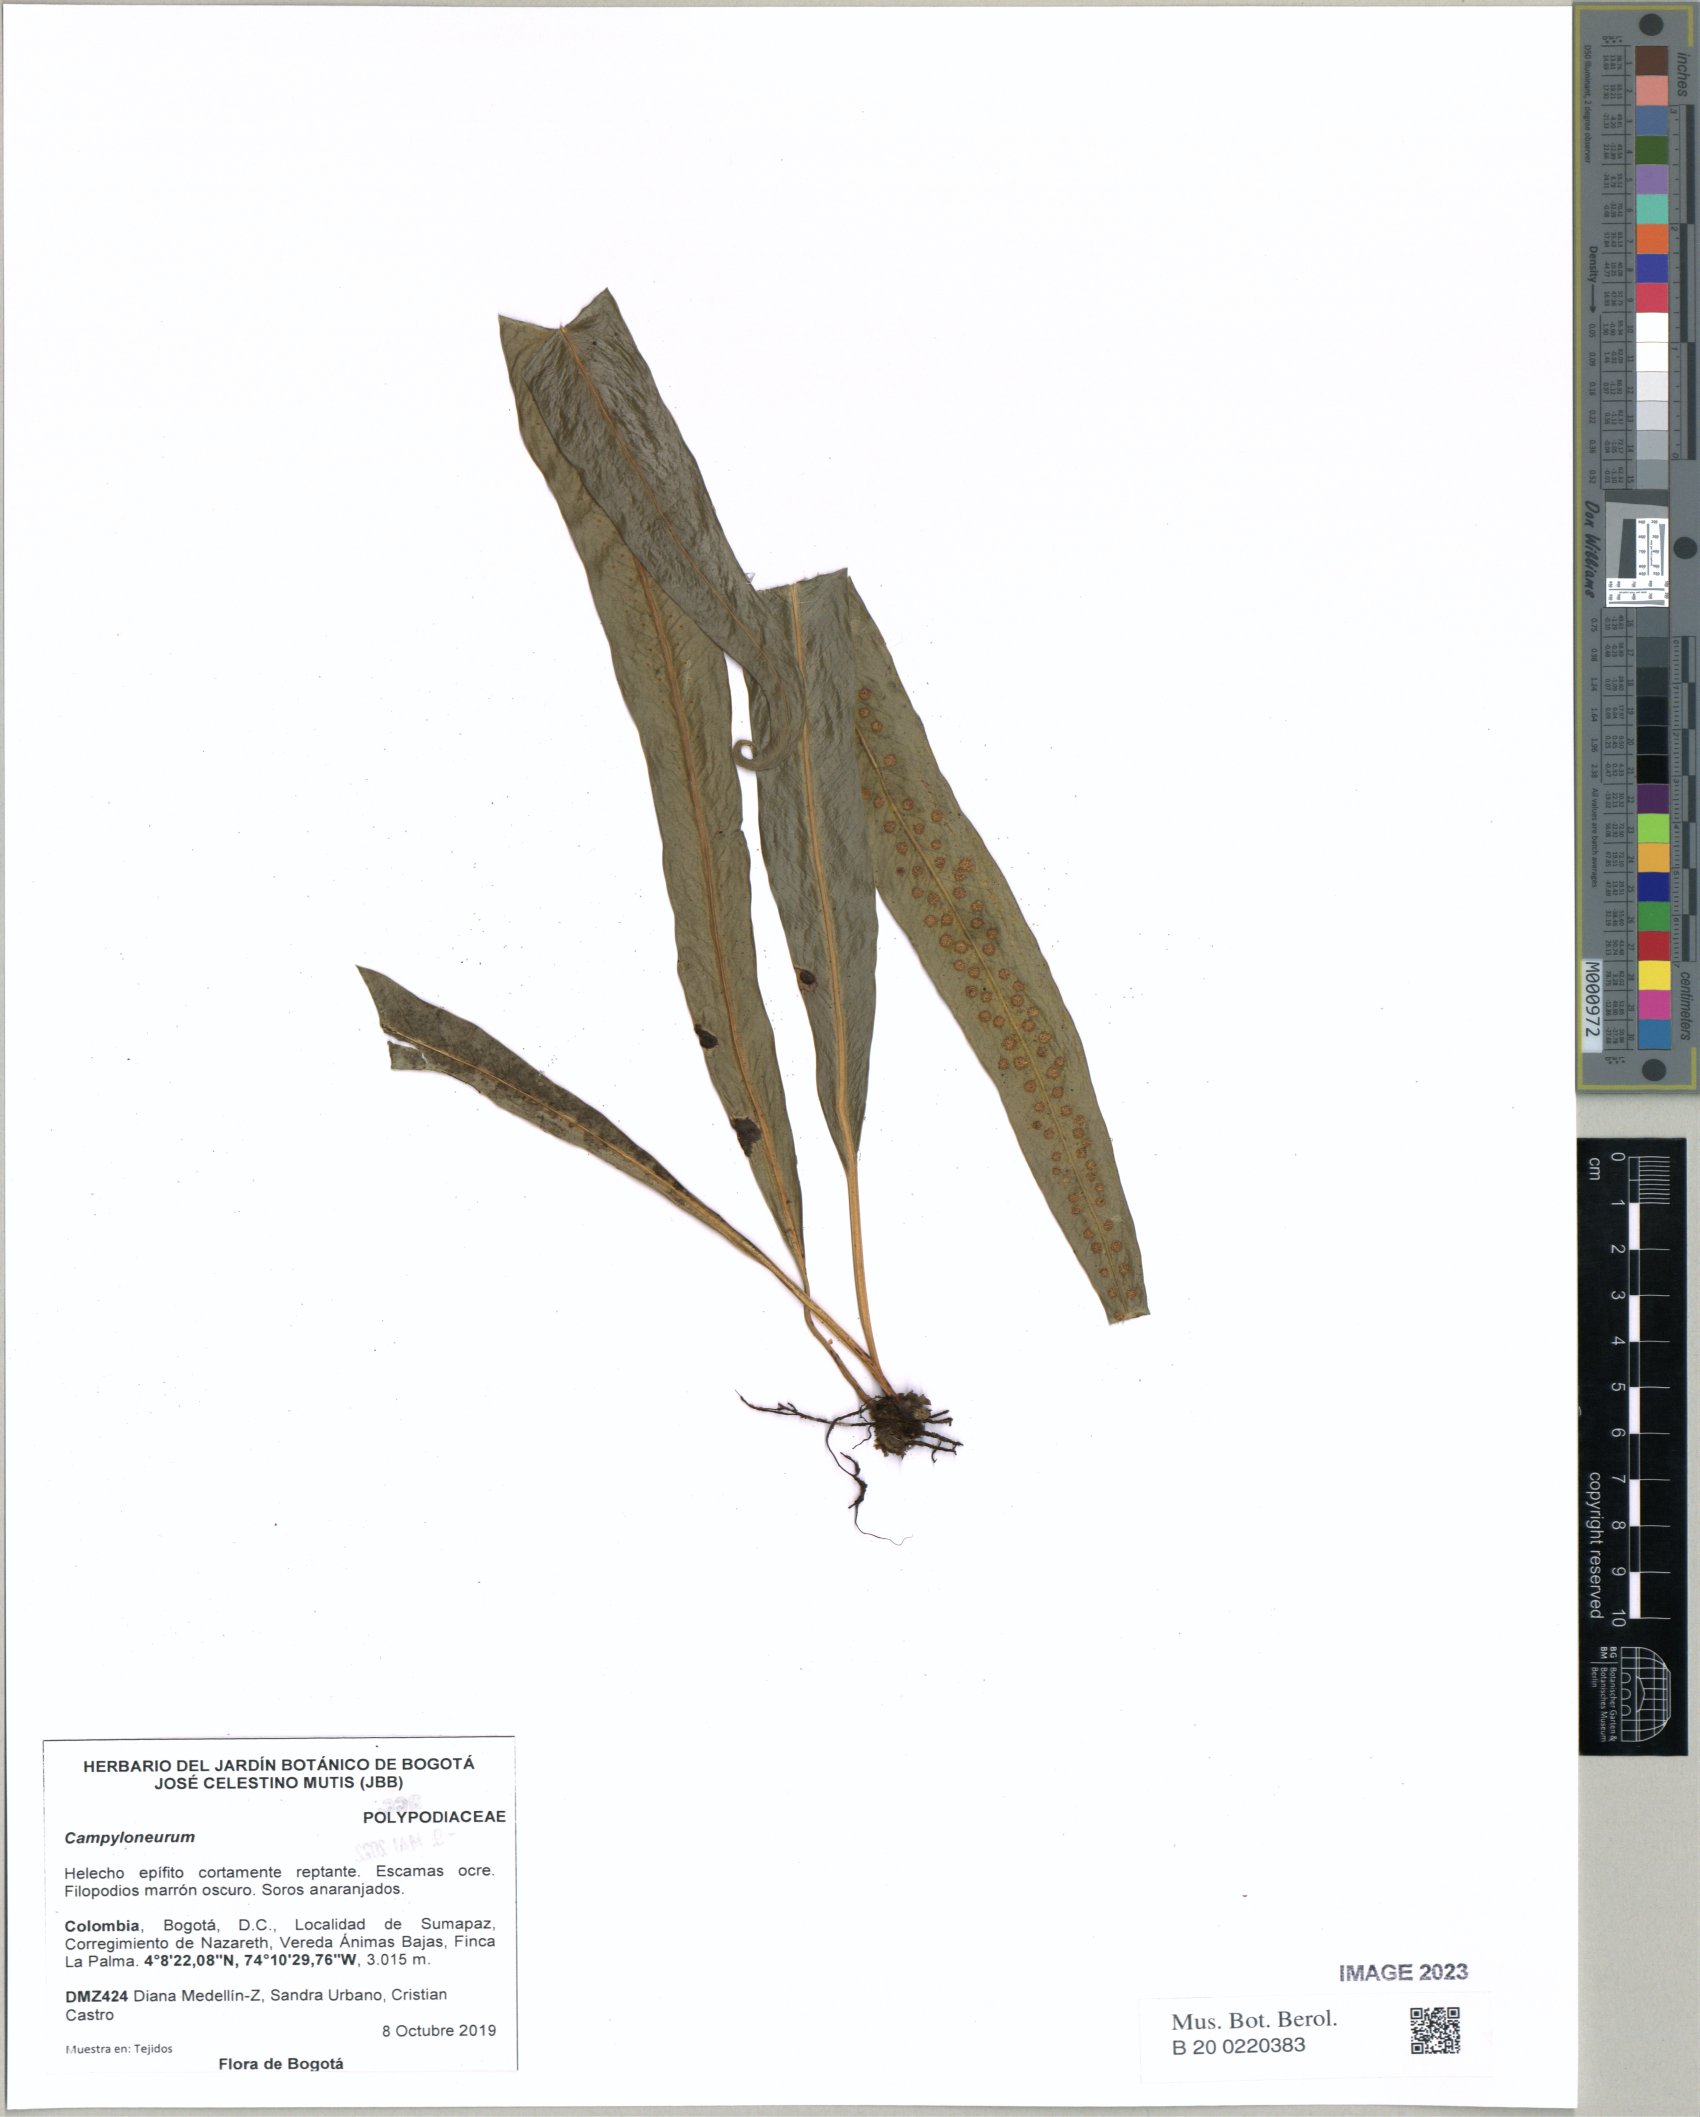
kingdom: Plantae
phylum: Tracheophyta
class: Polypodiopsida
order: Polypodiales
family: Polypodiaceae
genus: Campyloneurum
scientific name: Campyloneurum
